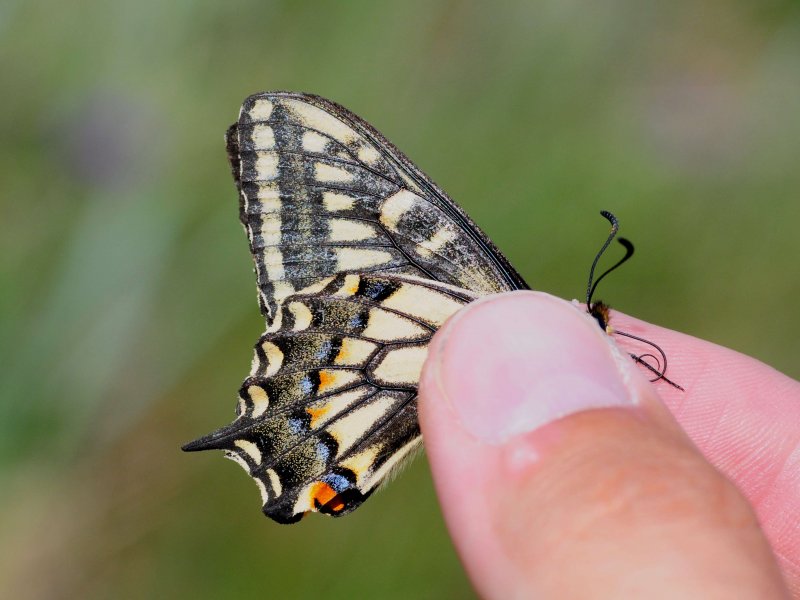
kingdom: Animalia
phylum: Arthropoda
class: Insecta
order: Lepidoptera
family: Papilionidae
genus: Papilio
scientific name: Papilio machaon
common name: Old World Swallowtail
